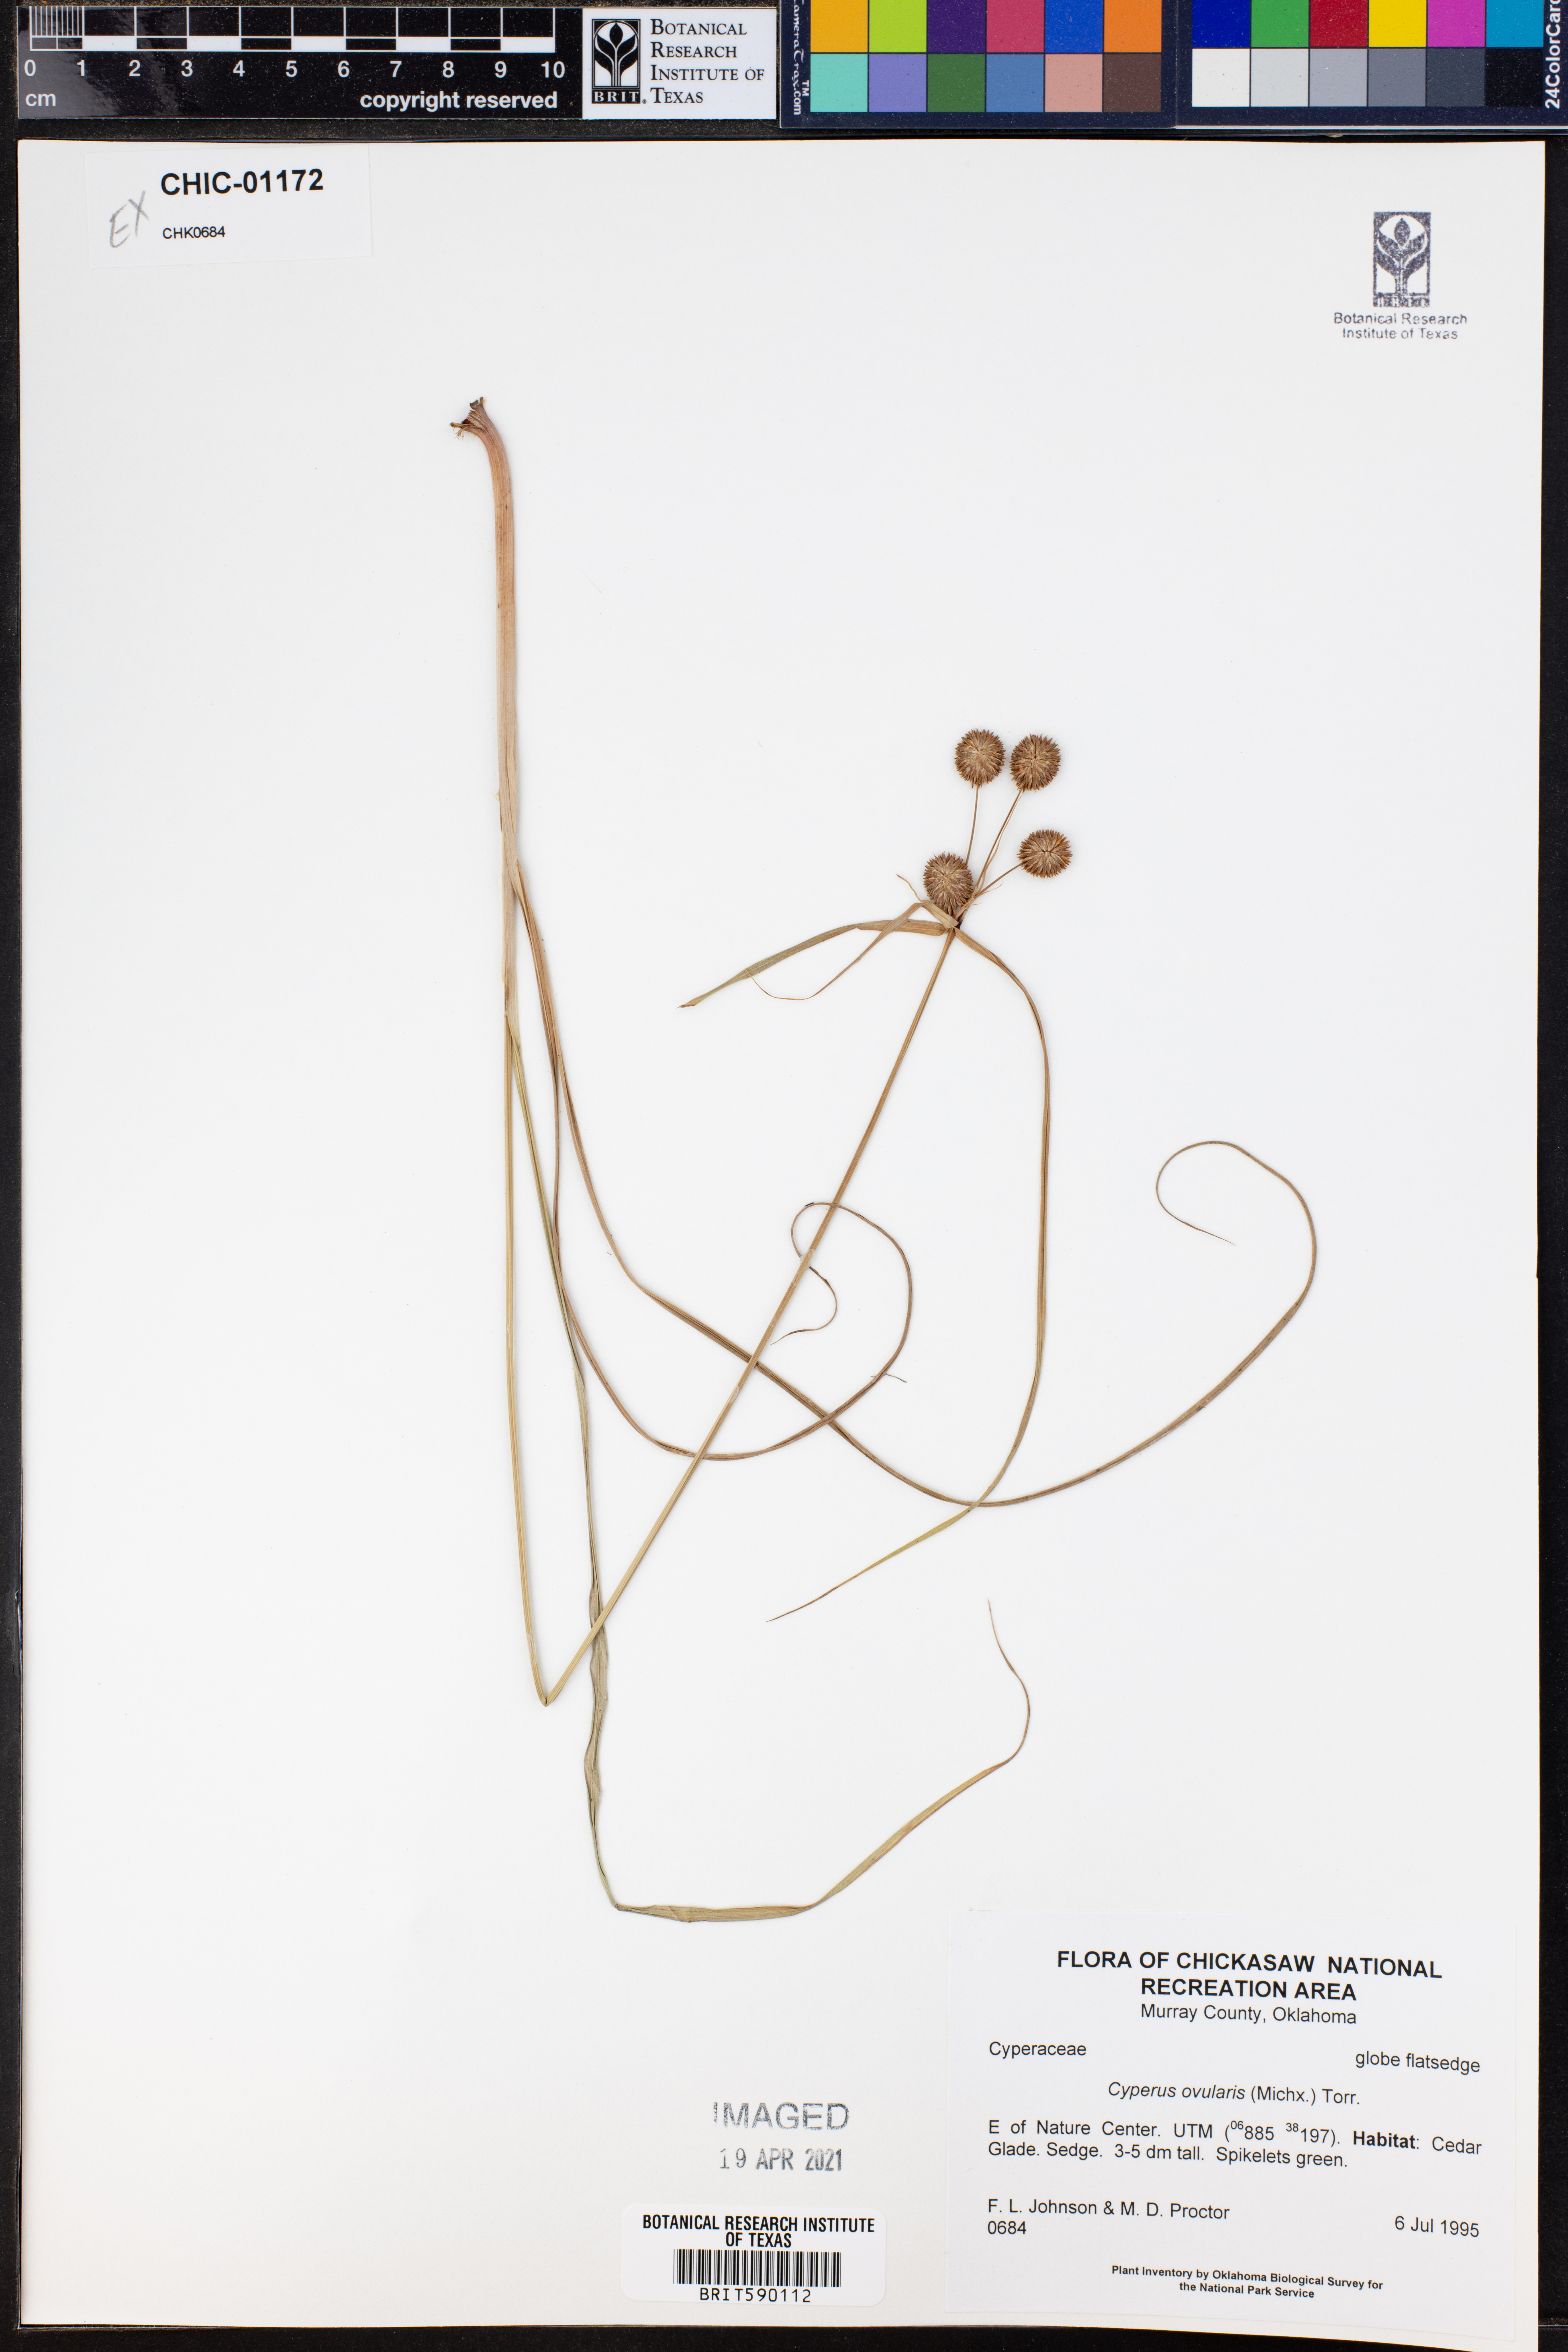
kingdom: Plantae
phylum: Tracheophyta
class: Liliopsida
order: Poales
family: Cyperaceae
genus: Cyperus
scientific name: Cyperus echinatus
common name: Teasel sedge
